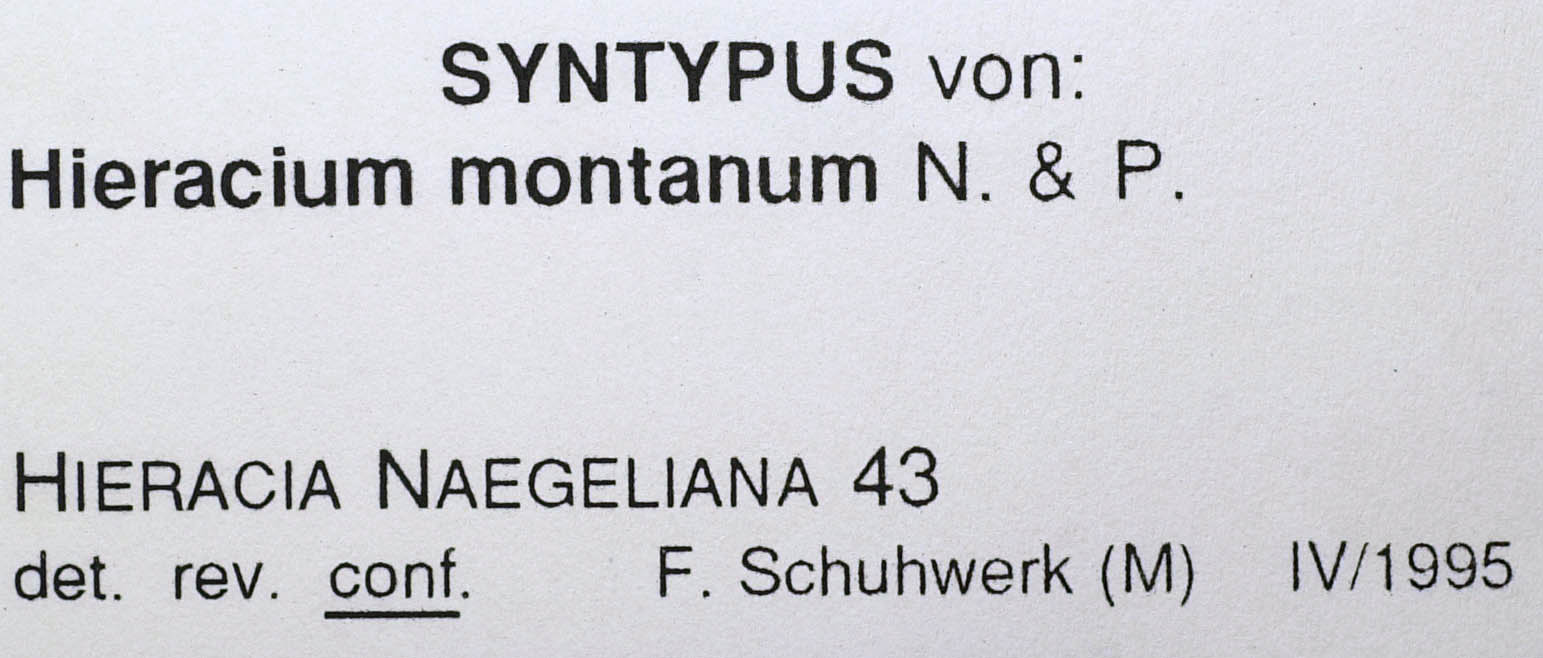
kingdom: Plantae
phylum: Tracheophyta
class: Magnoliopsida
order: Asterales
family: Asteraceae
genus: Pilosella
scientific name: Pilosella chomatophila
